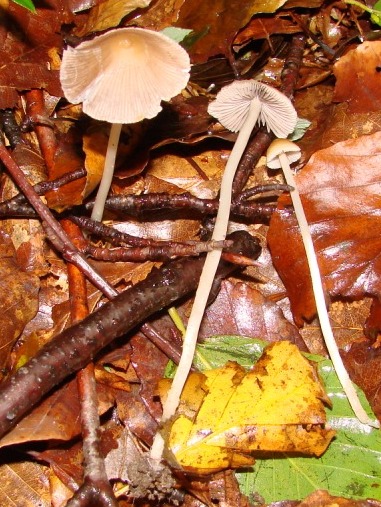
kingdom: Fungi
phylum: Basidiomycota
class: Agaricomycetes
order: Agaricales
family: Psathyrellaceae
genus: Psathyrella
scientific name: Psathyrella corrugis
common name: rødægget mørkhat
